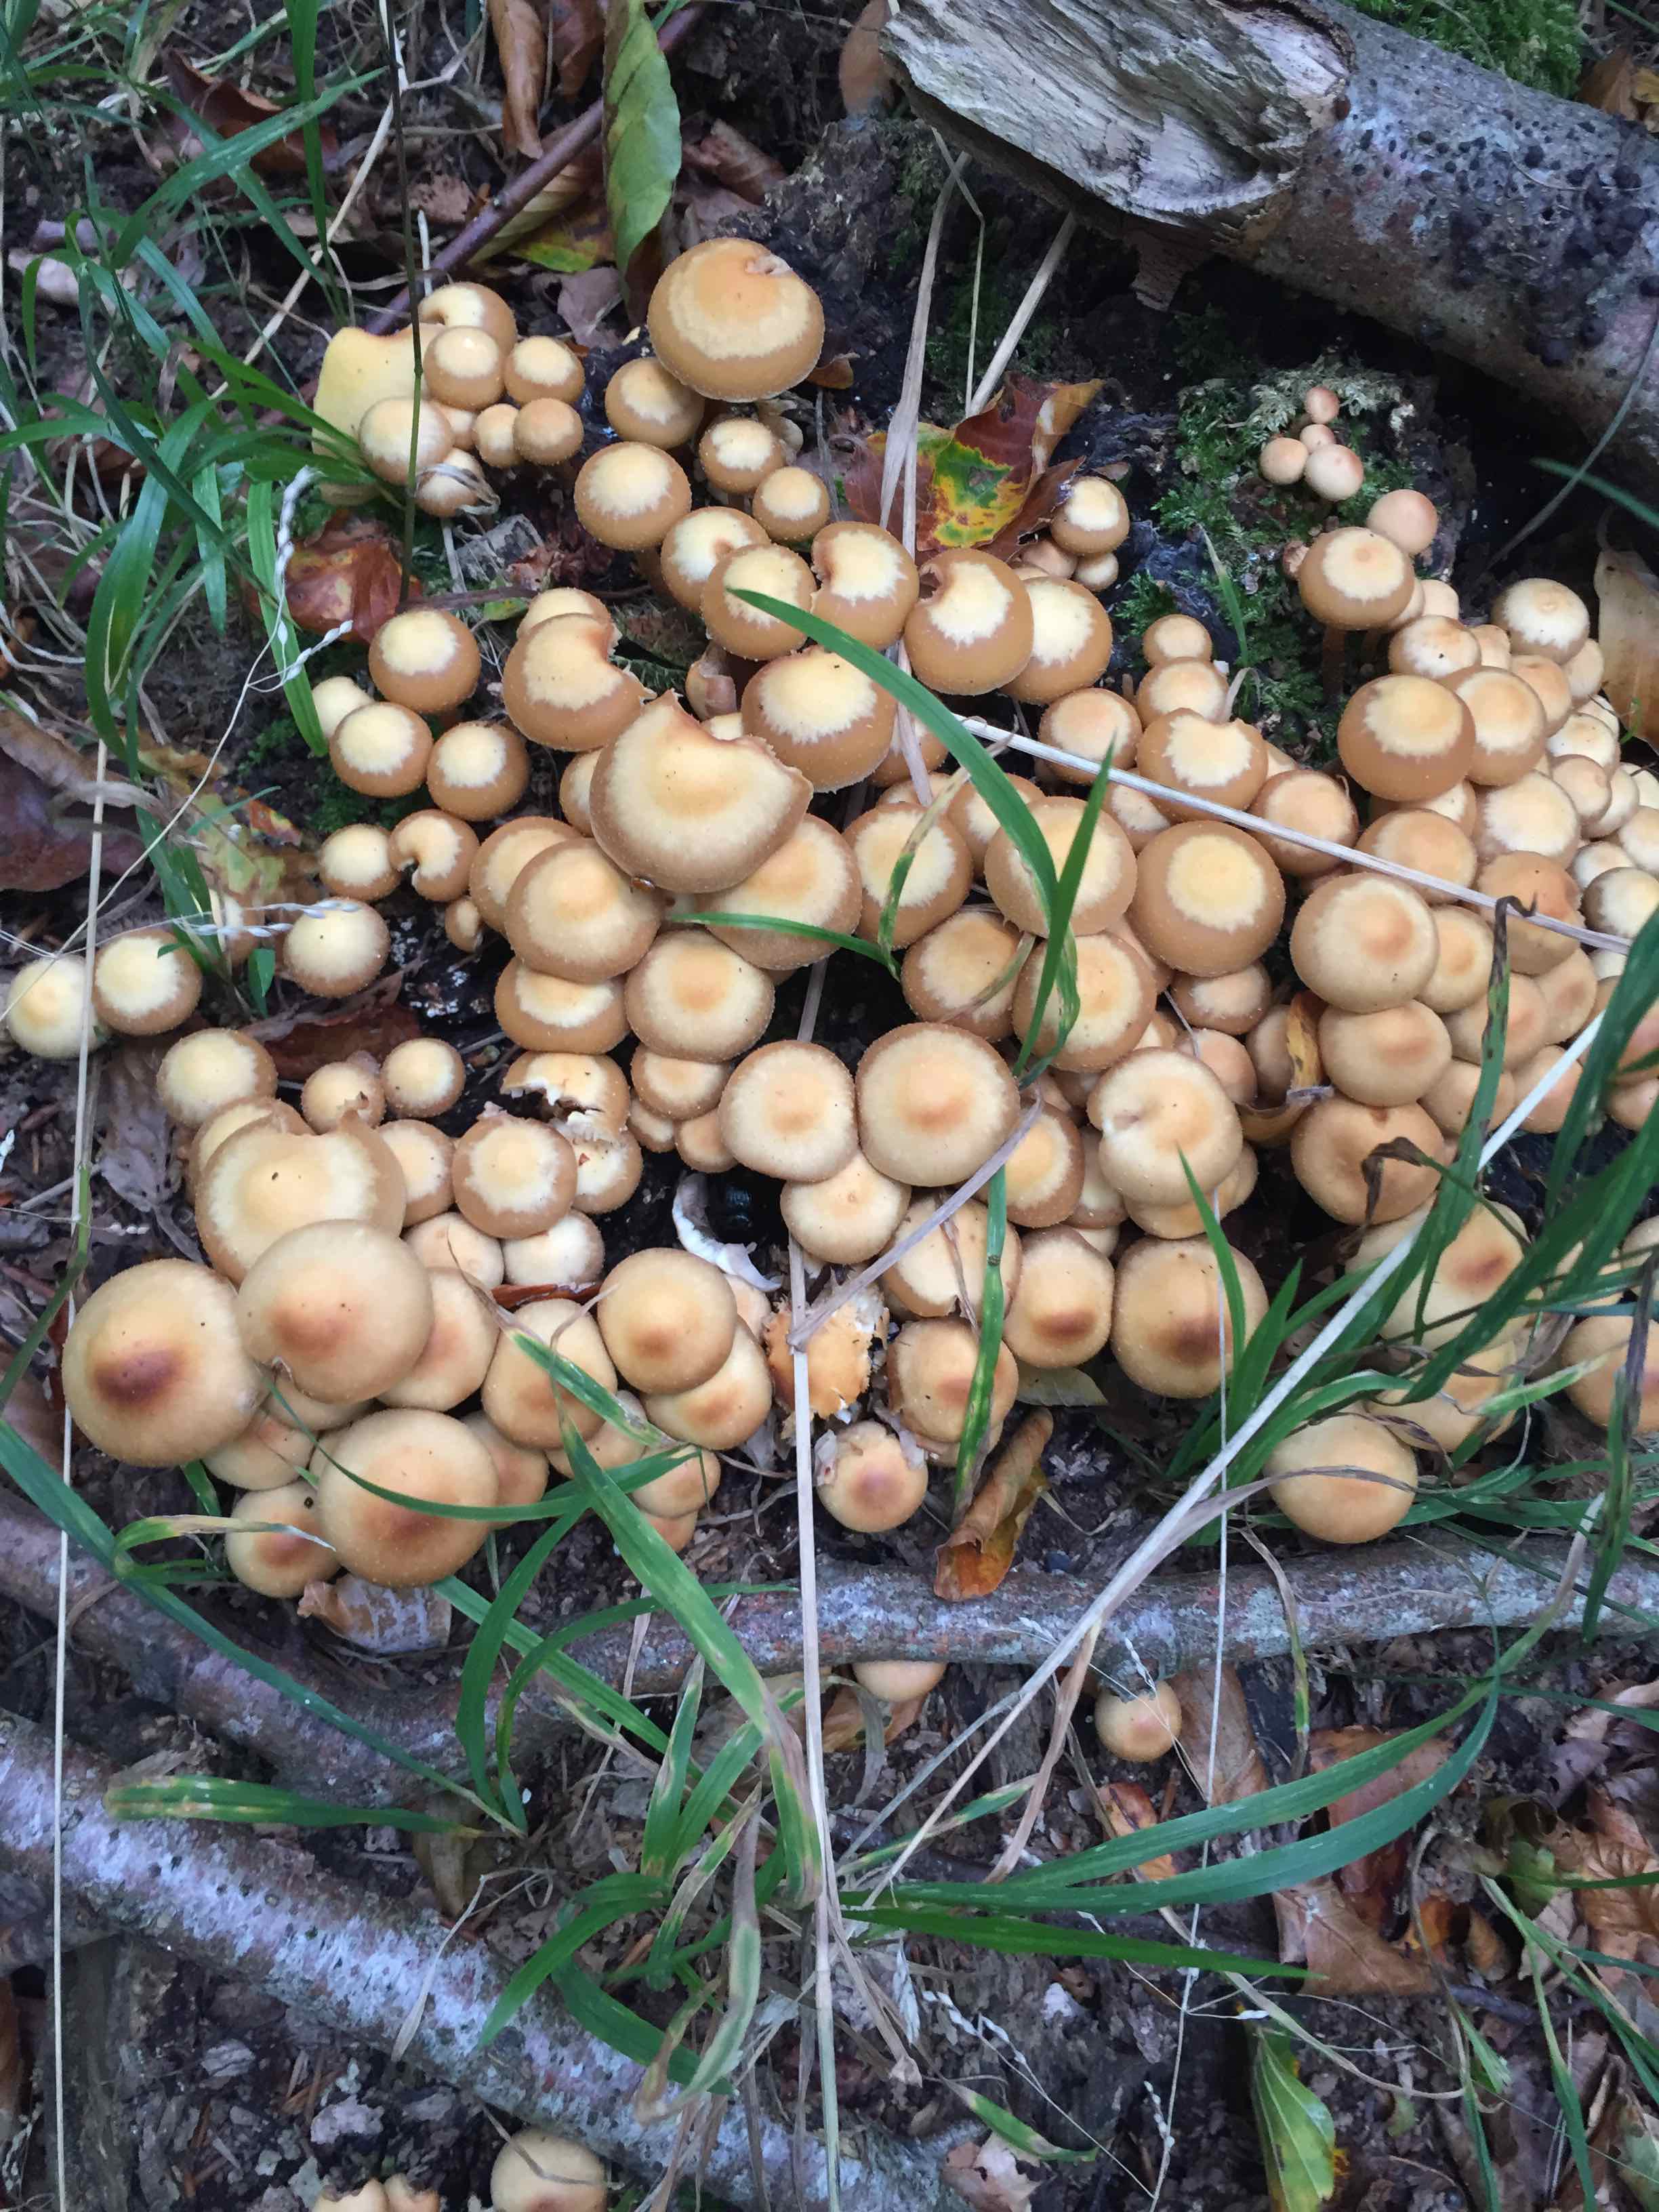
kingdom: Fungi
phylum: Basidiomycota
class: Agaricomycetes
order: Agaricales
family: Strophariaceae
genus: Kuehneromyces
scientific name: Kuehneromyces mutabilis
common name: foranderlig skælhat
